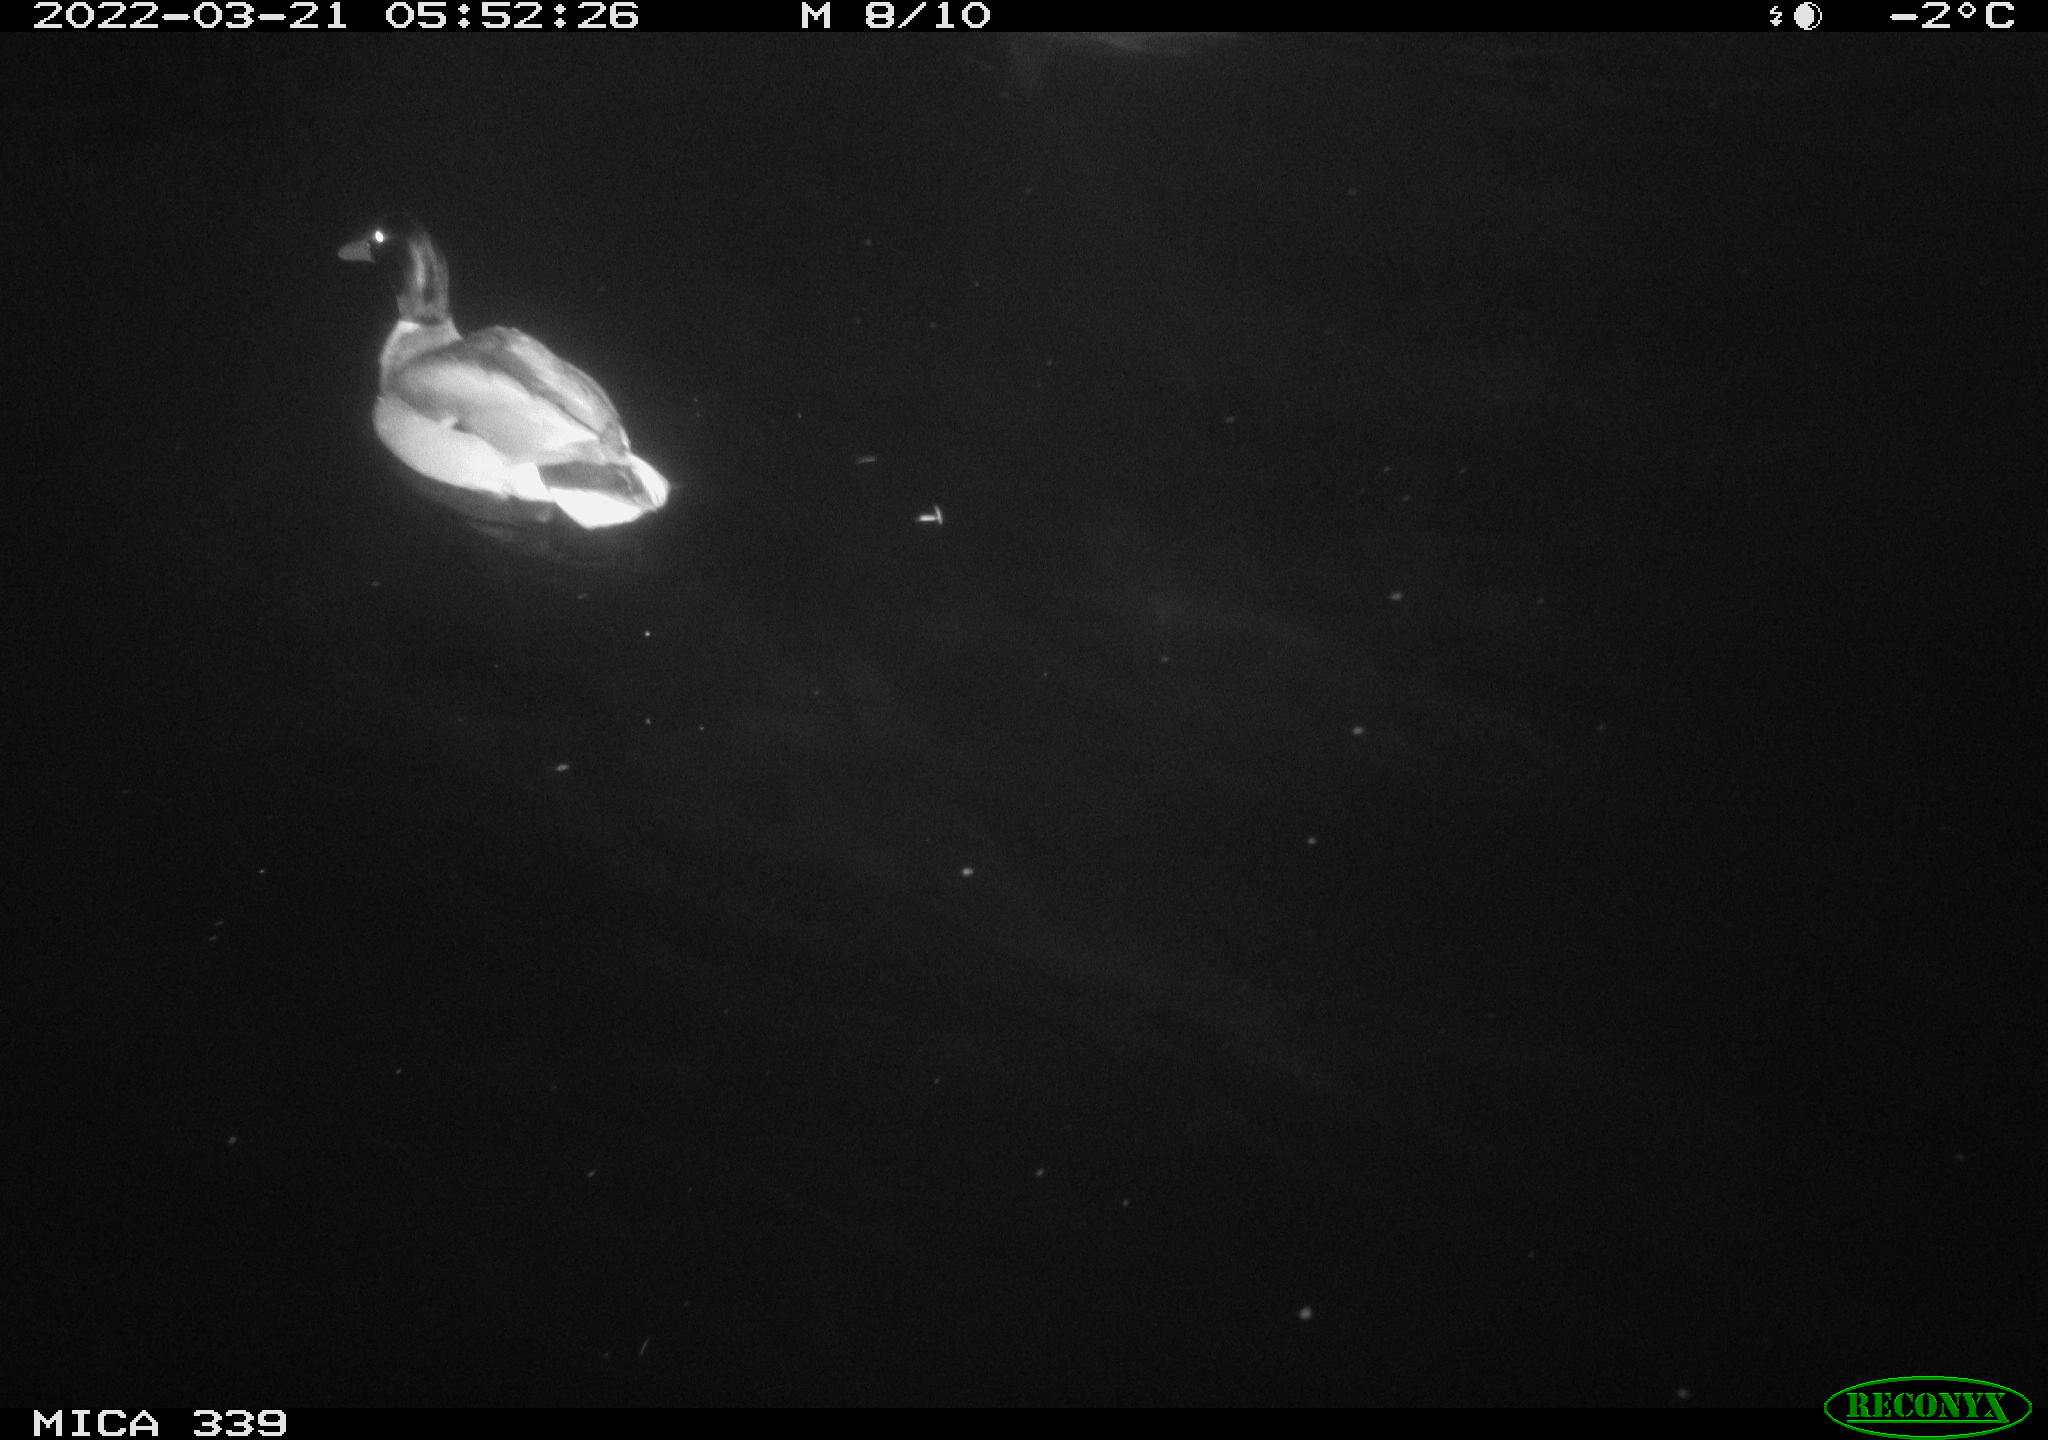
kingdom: Animalia
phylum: Chordata
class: Aves
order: Anseriformes
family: Anatidae
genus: Anas
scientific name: Anas platyrhynchos
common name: Mallard
